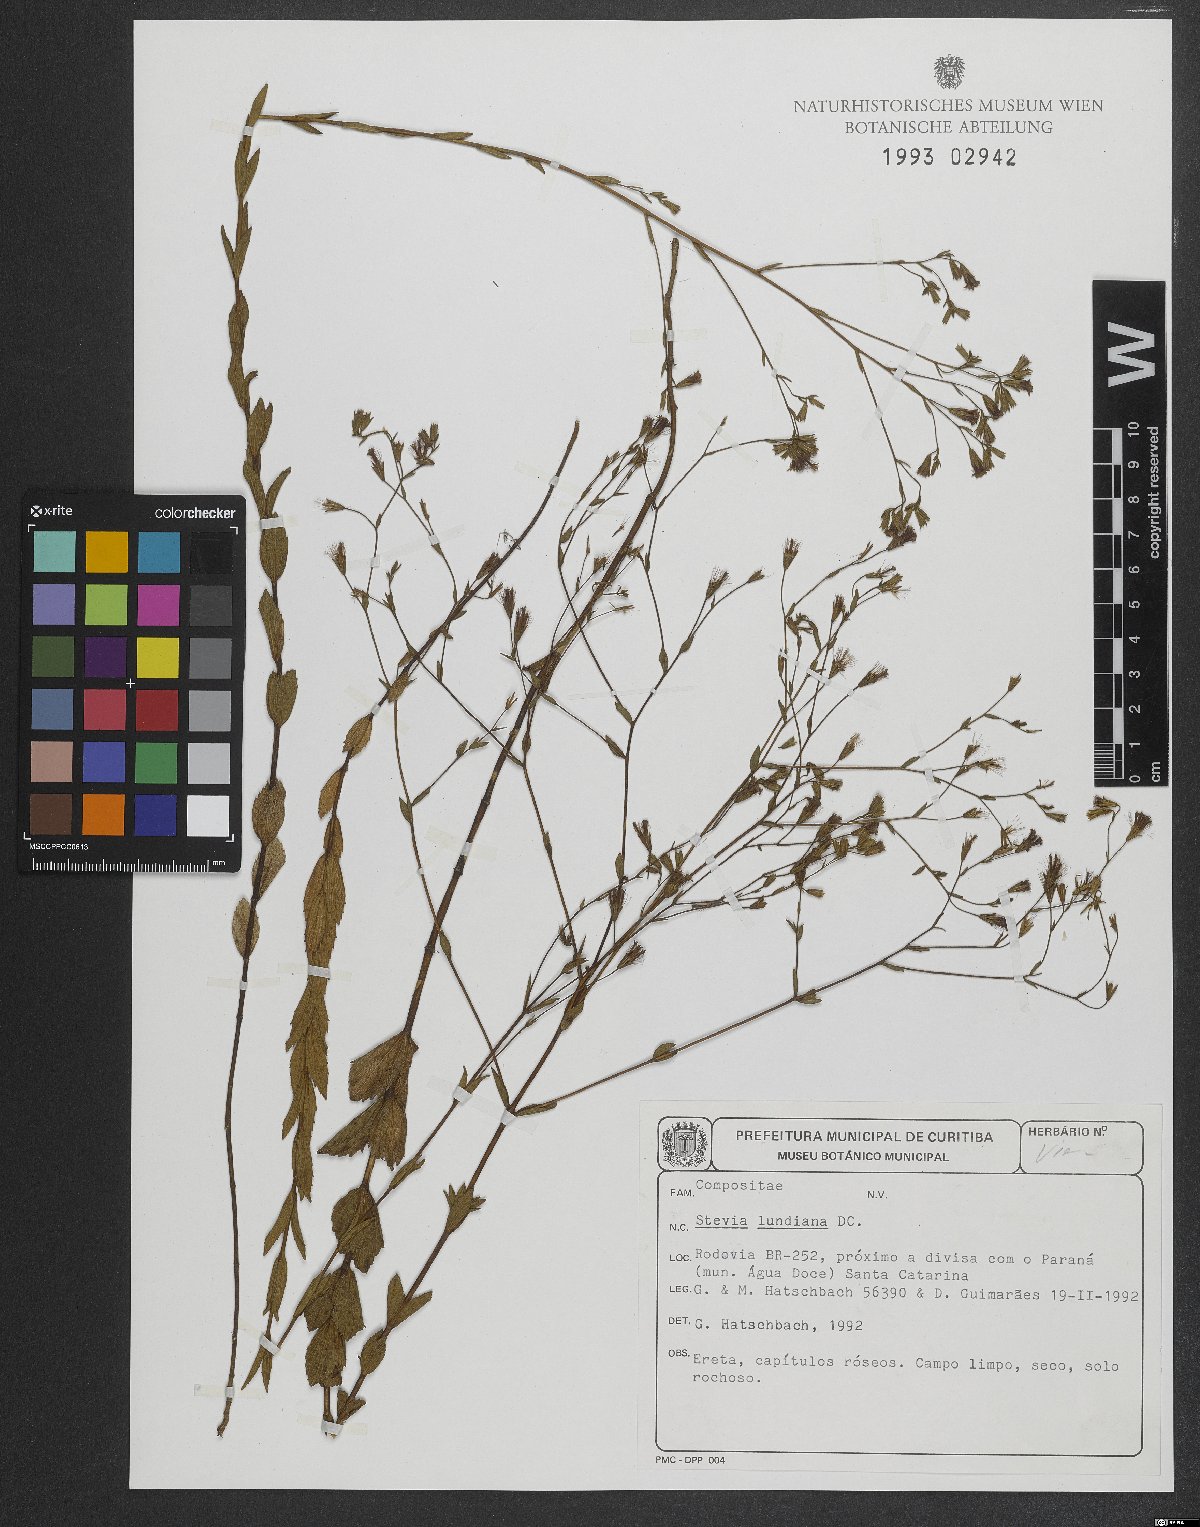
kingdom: Plantae
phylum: Tracheophyta
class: Magnoliopsida
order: Asterales
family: Asteraceae
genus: Stevia
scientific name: Stevia lundiana
